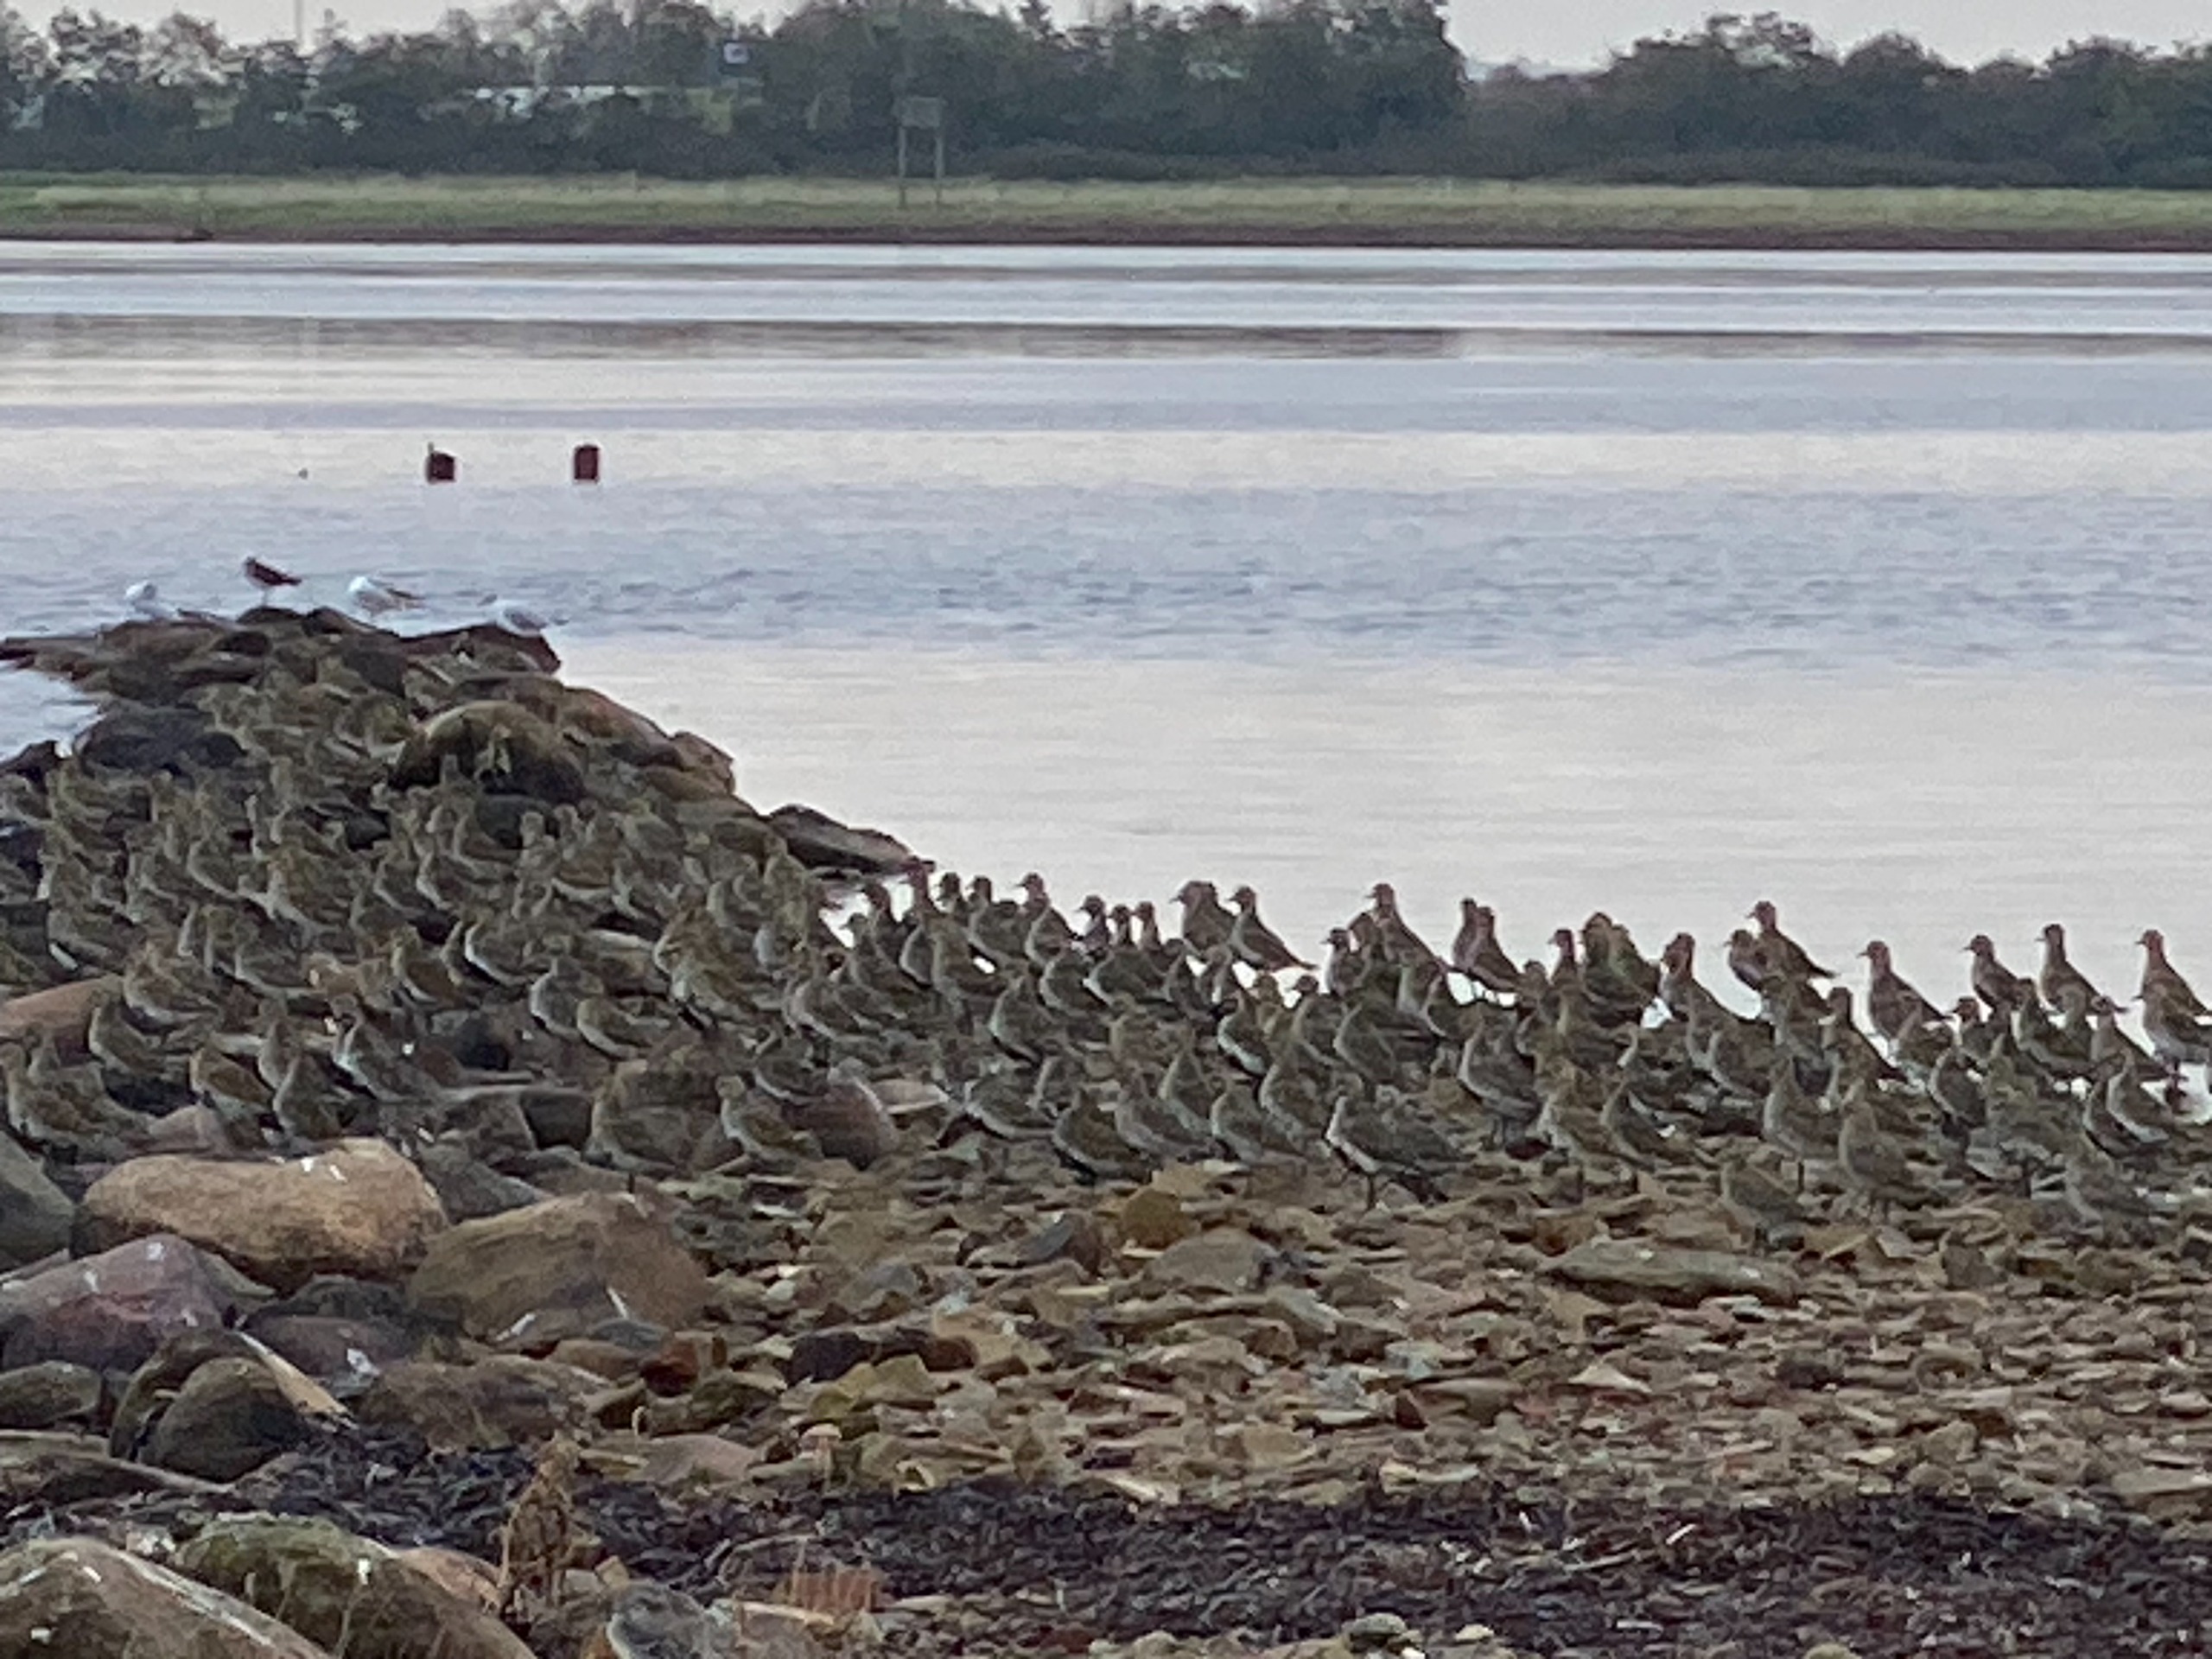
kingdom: Animalia
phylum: Chordata
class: Aves
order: Charadriiformes
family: Charadriidae
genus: Pluvialis
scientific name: Pluvialis apricaria
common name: Hjejle
